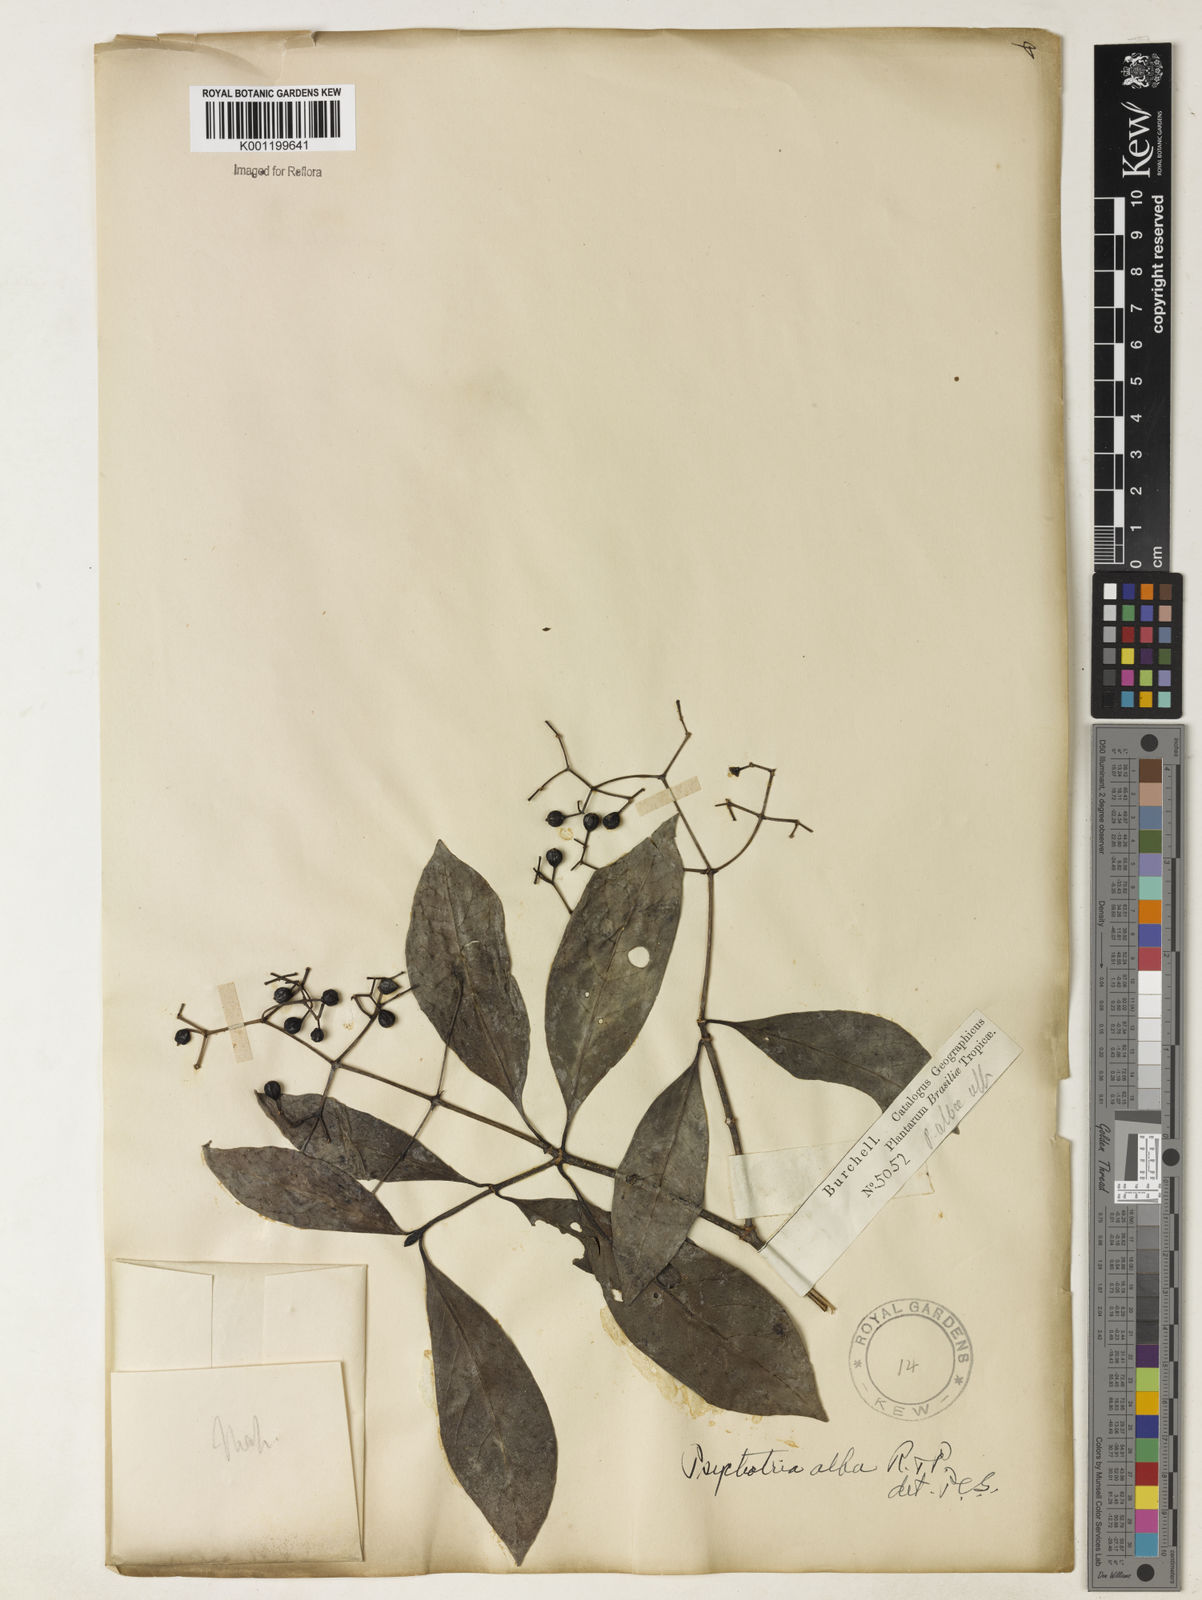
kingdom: Plantae
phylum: Tracheophyta
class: Magnoliopsida
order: Gentianales
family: Rubiaceae
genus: Psychotria
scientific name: Psychotria carthagenensis
